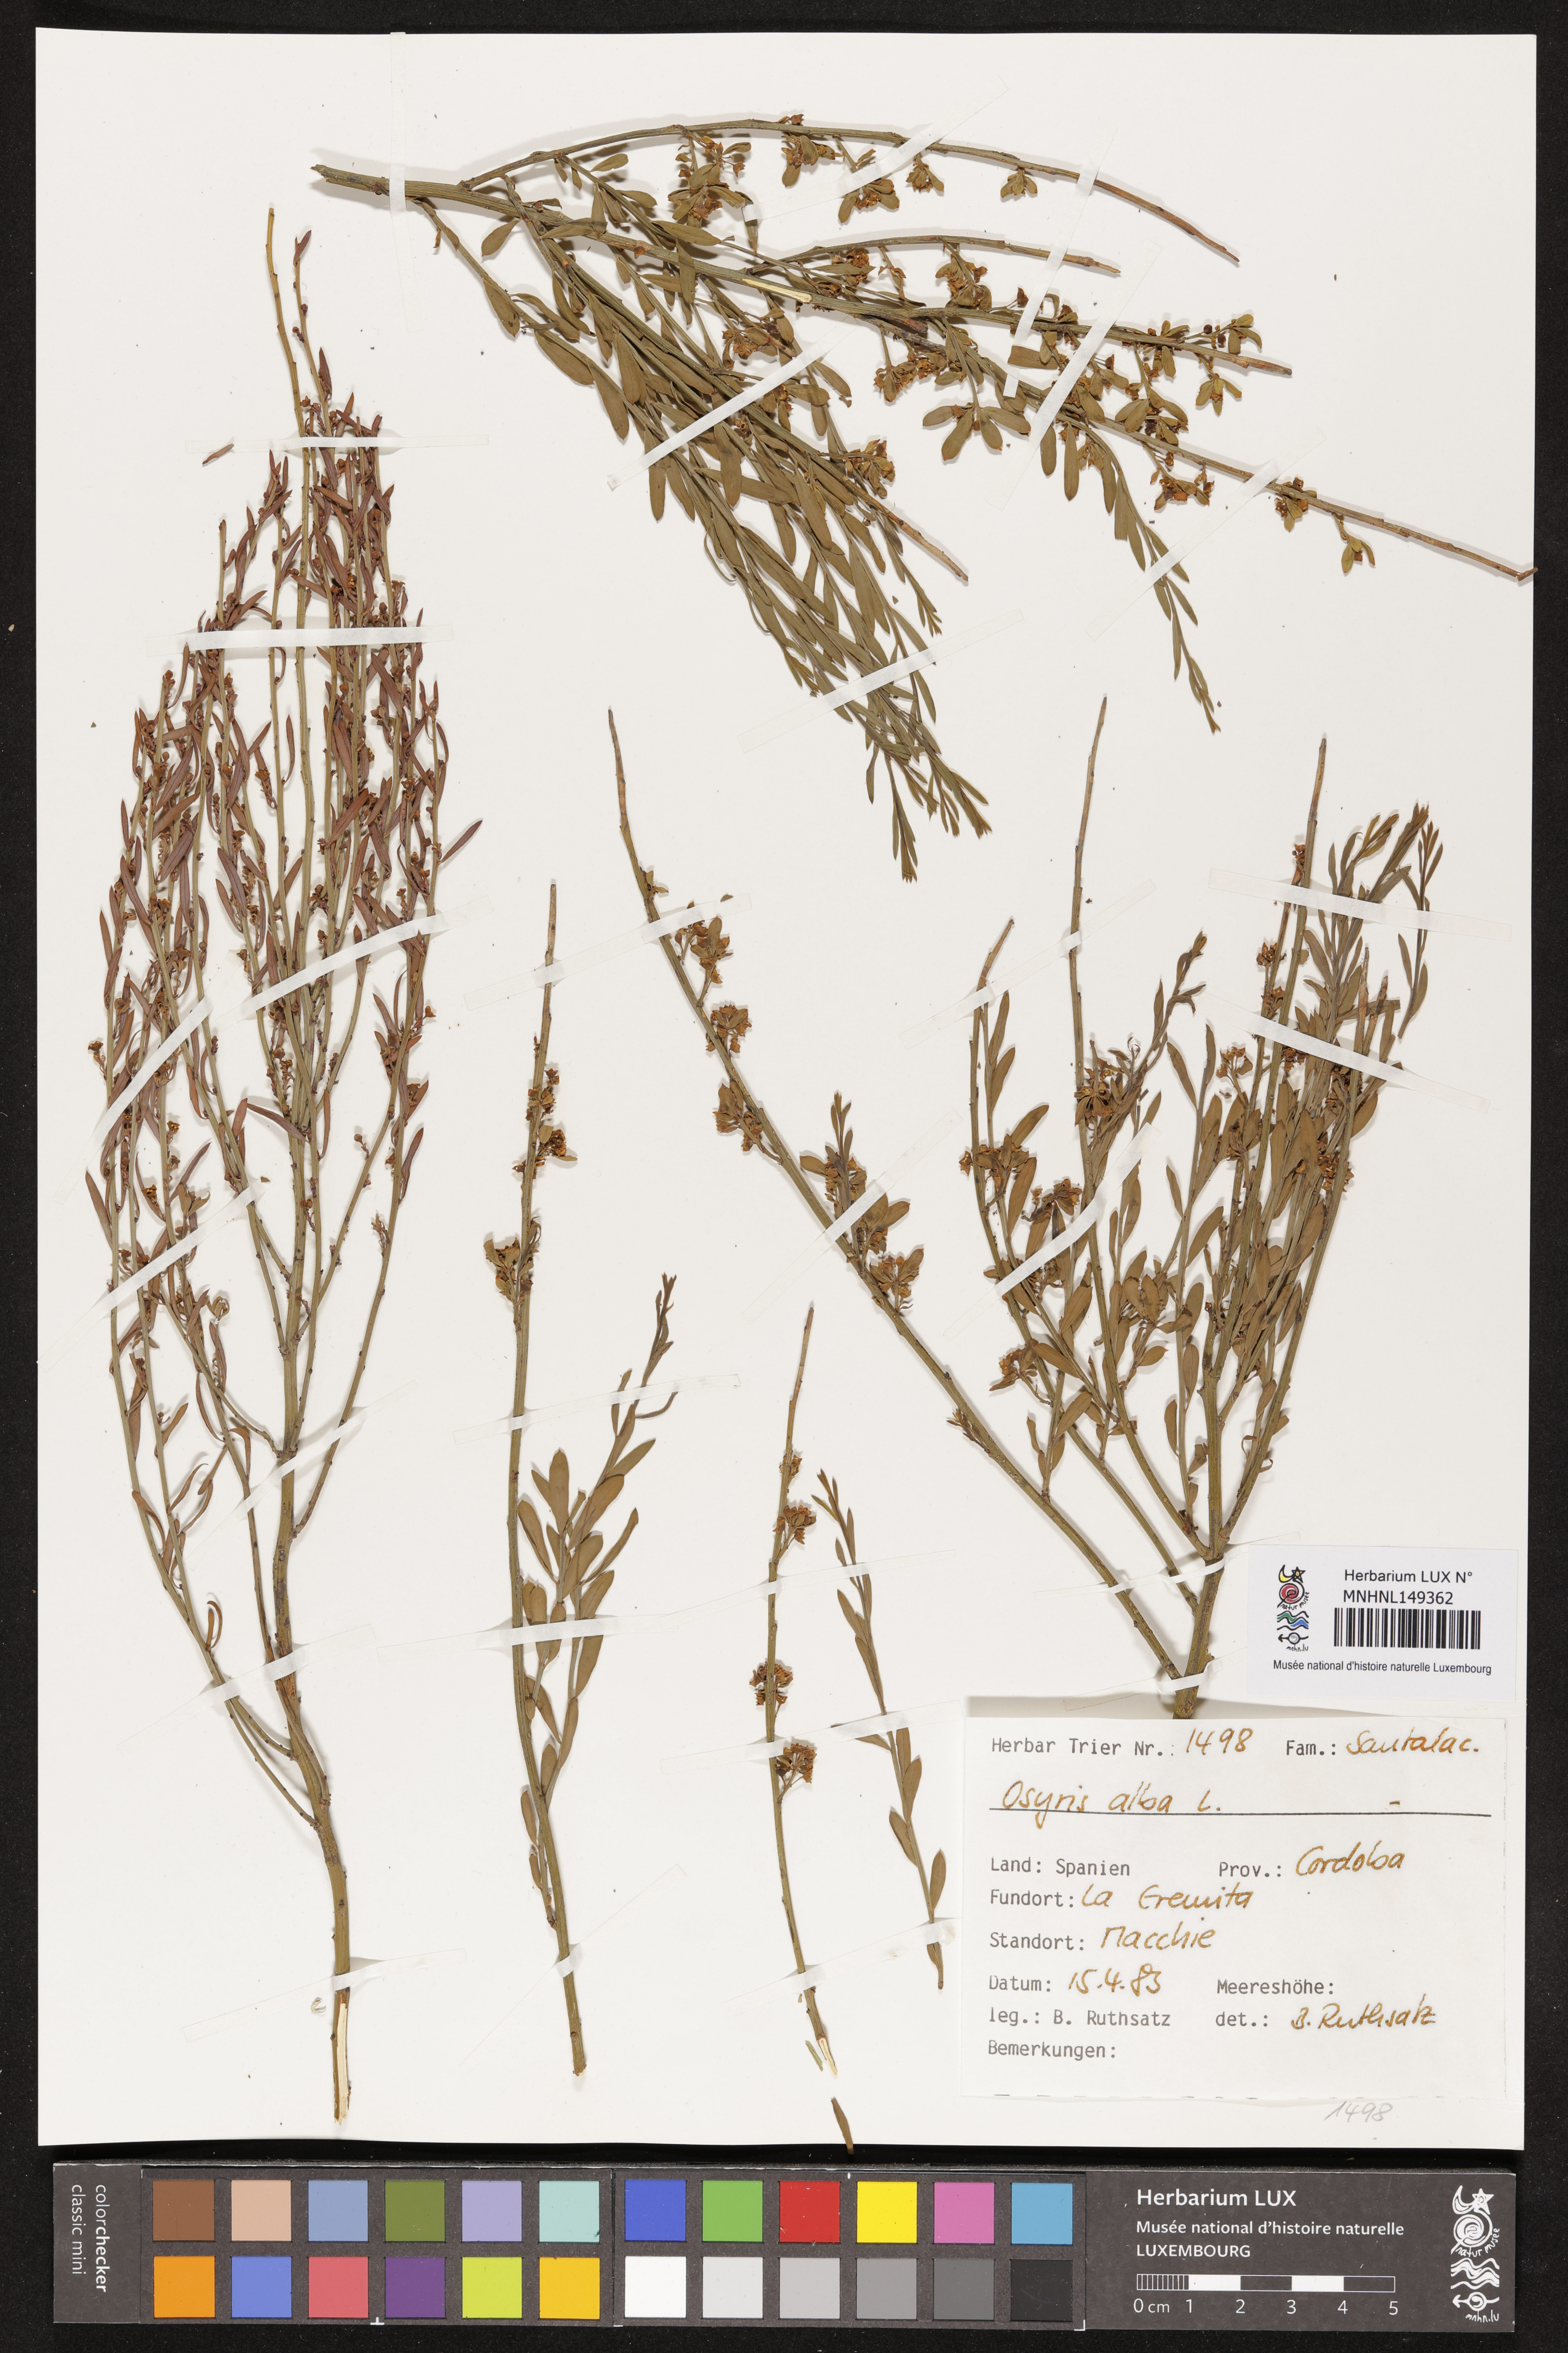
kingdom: Plantae
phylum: Tracheophyta
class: Magnoliopsida
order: Santalales
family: Santalaceae
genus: Osyris
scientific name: Osyris alba
